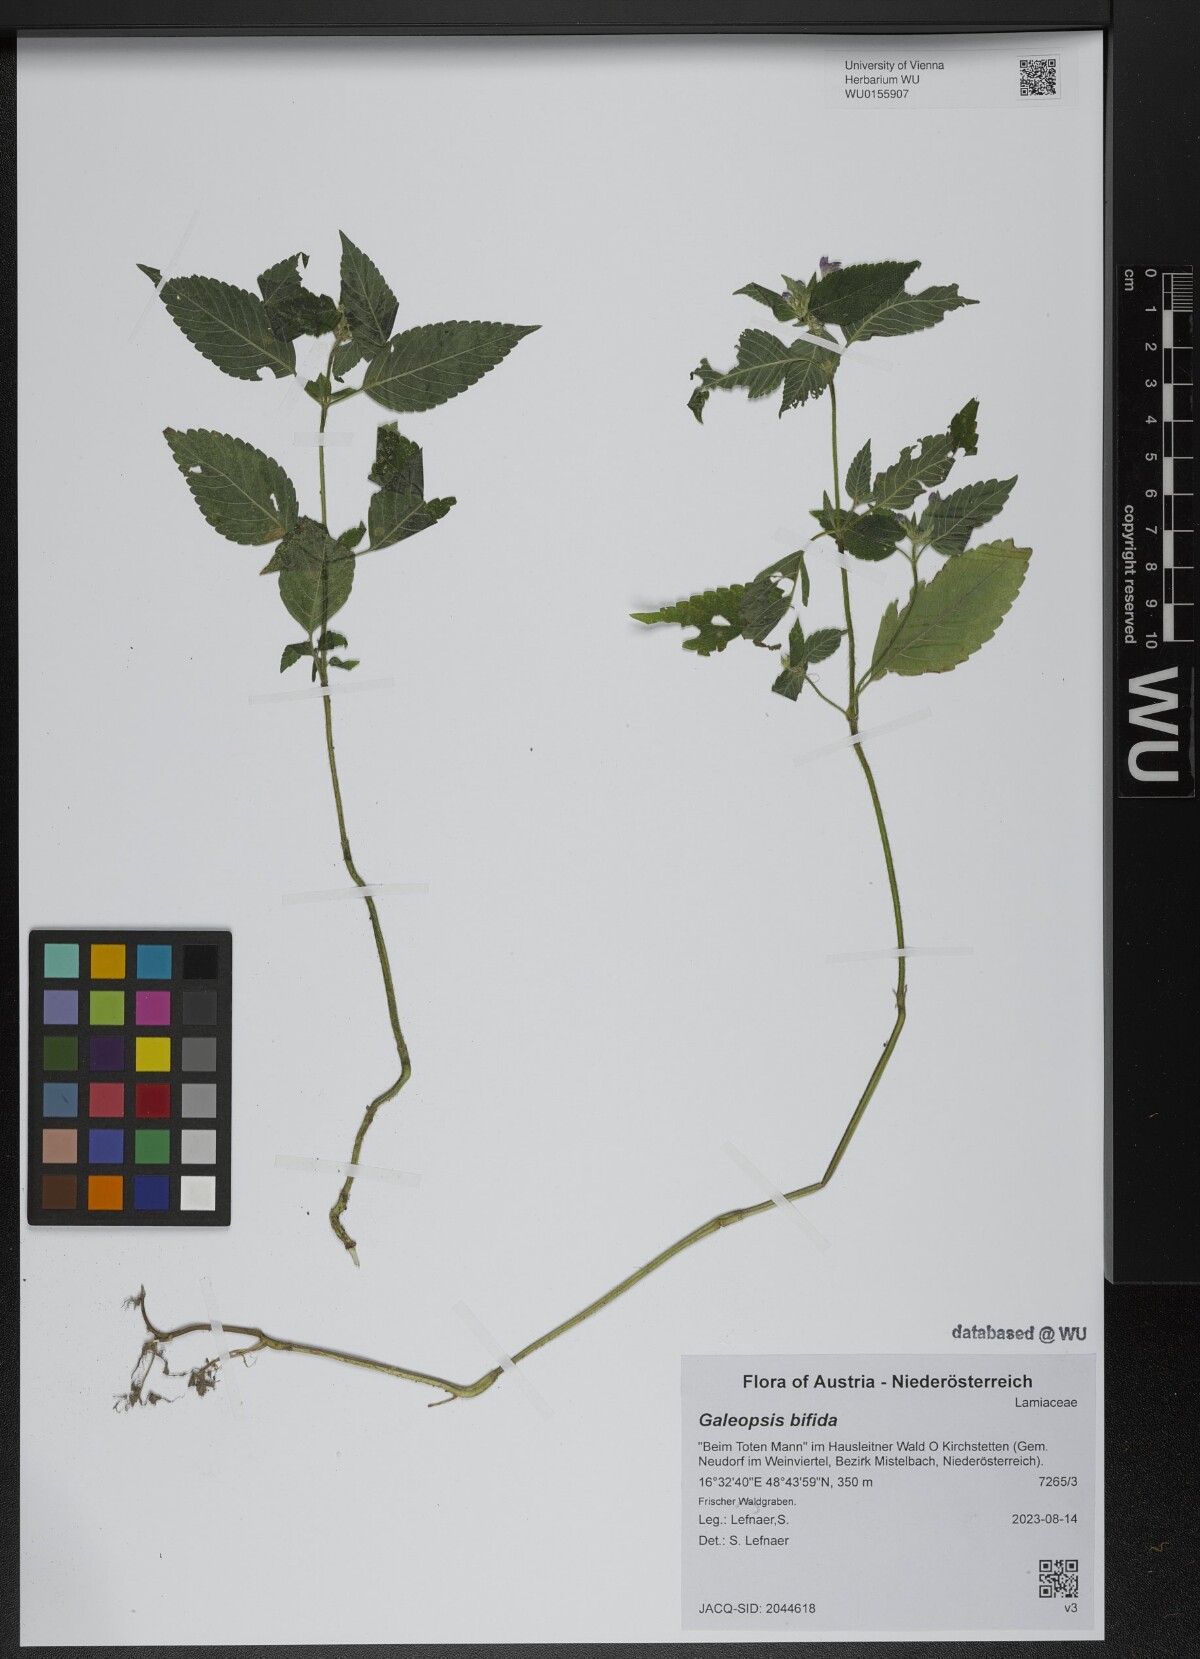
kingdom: Plantae
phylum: Tracheophyta
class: Magnoliopsida
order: Lamiales
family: Lamiaceae
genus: Galeopsis
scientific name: Galeopsis bifida
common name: Bifid hemp-nettle
